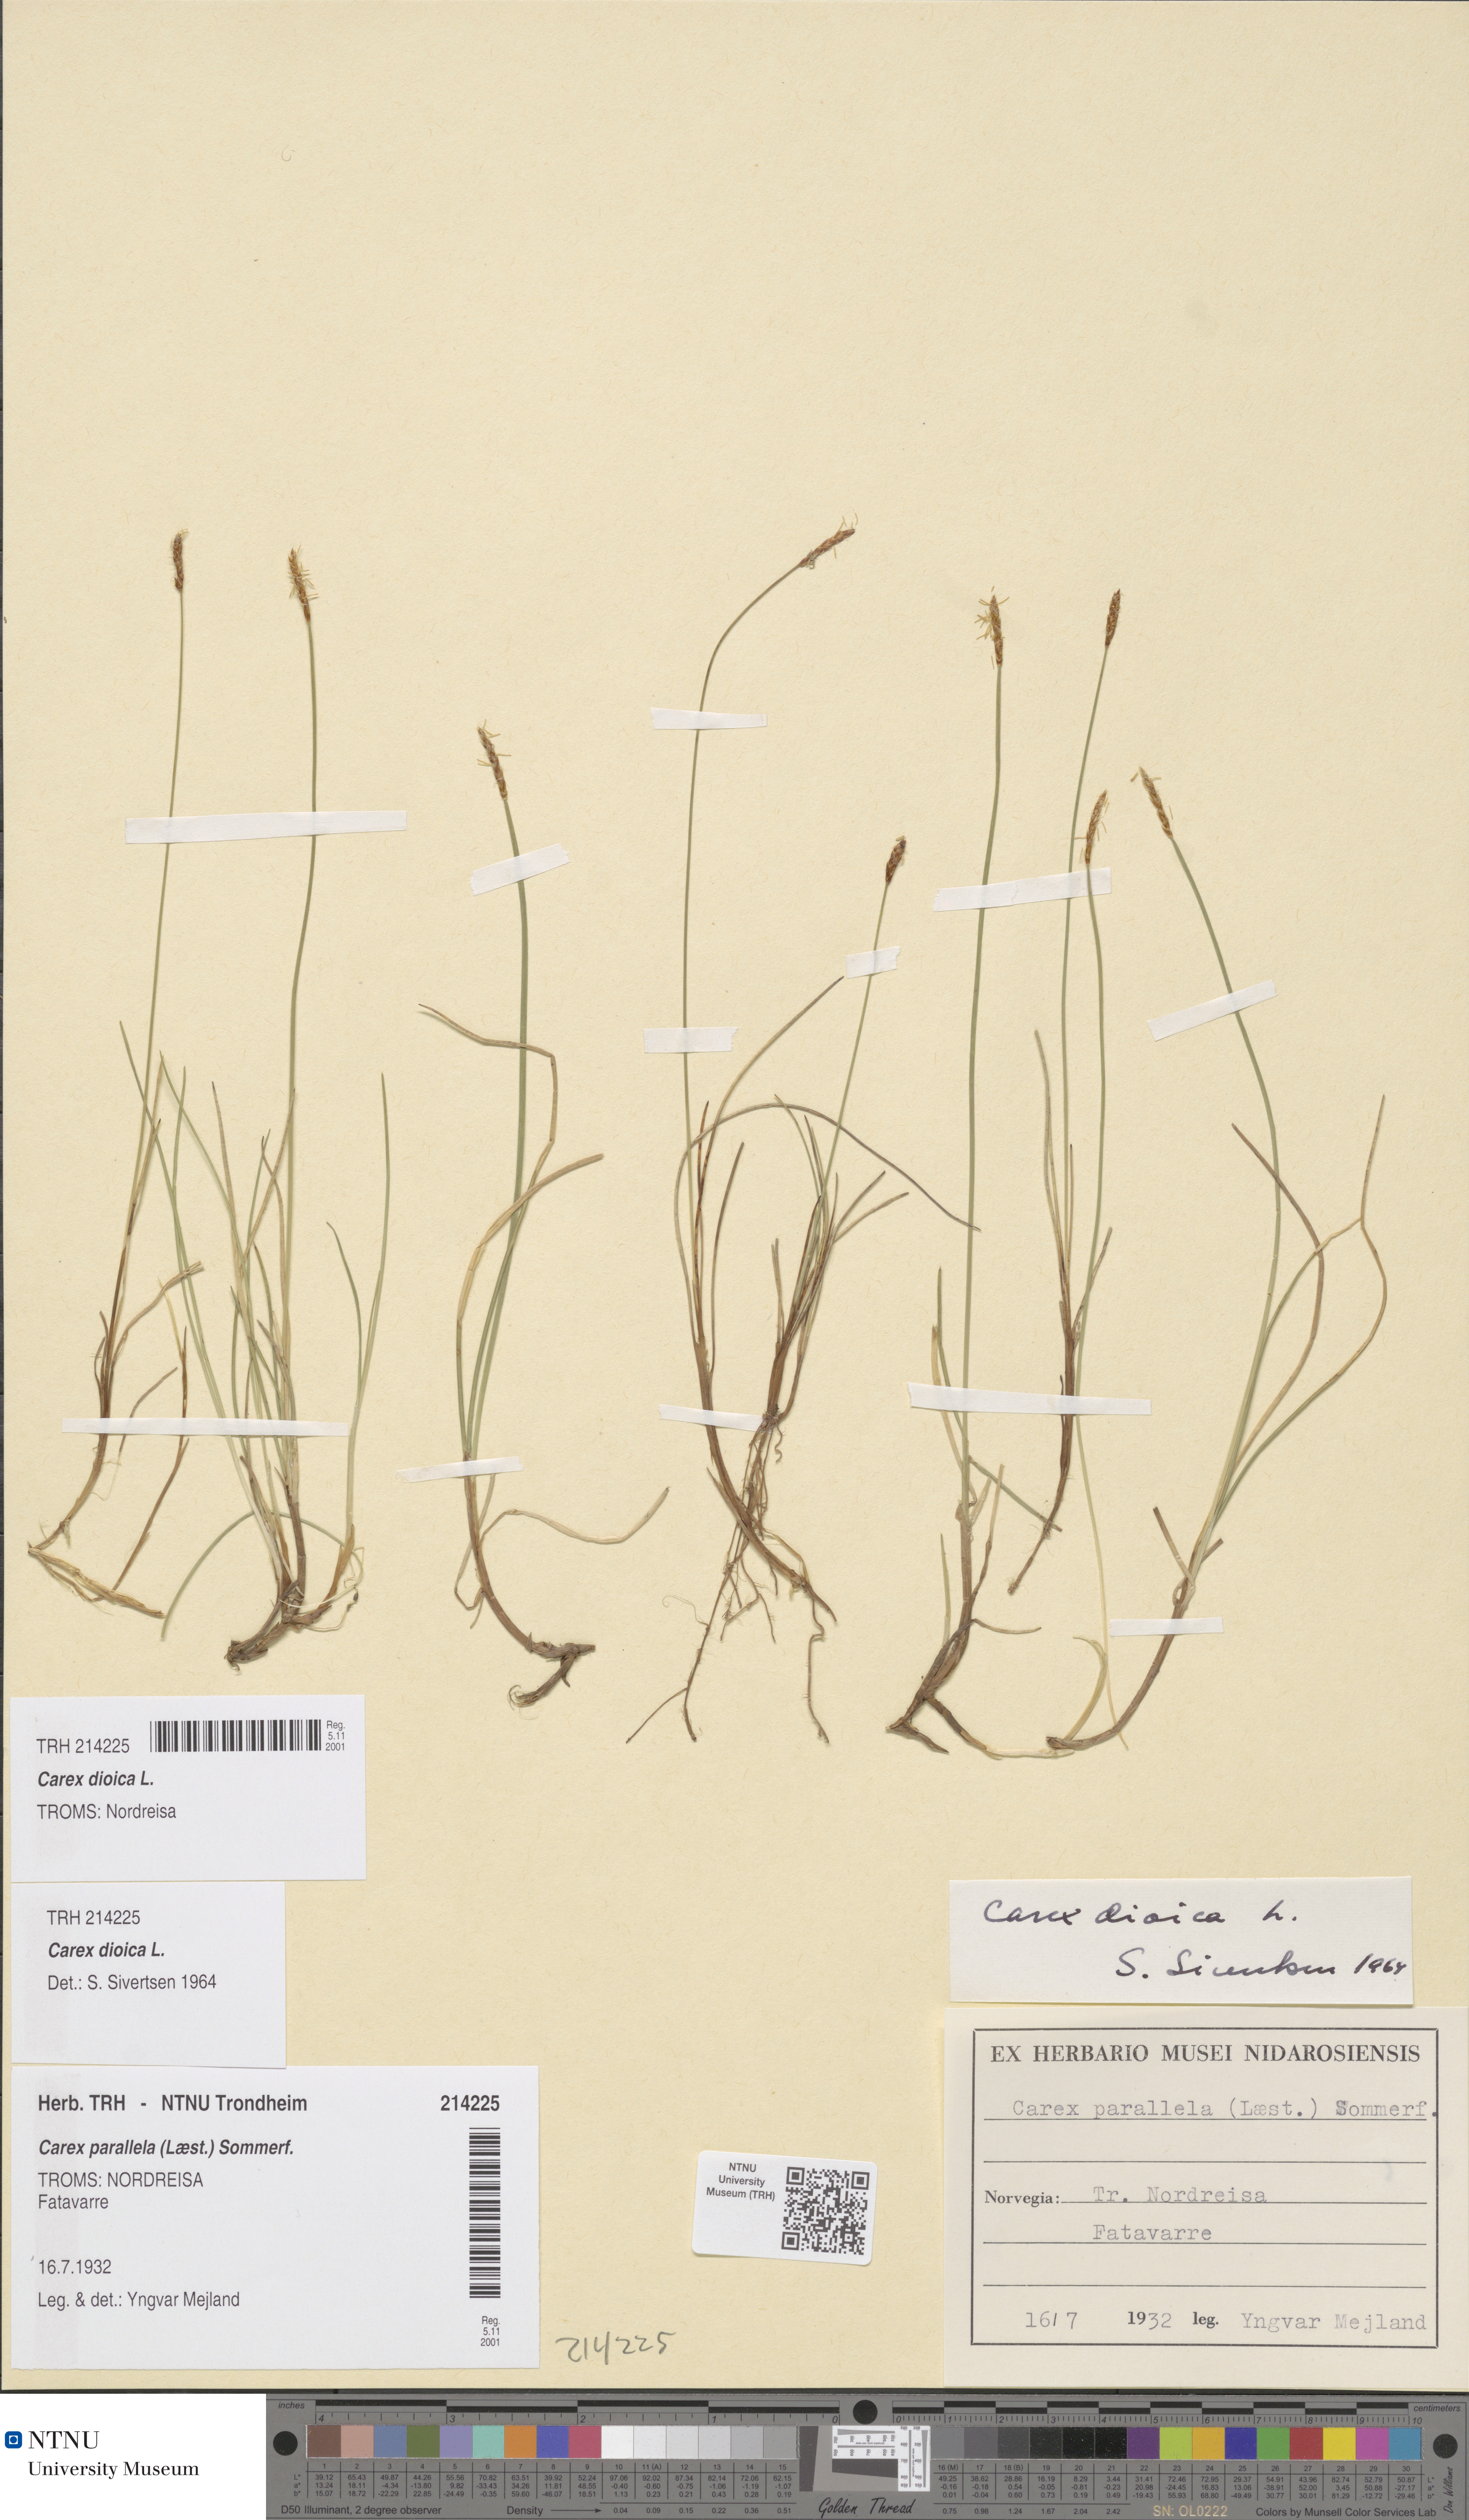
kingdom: Plantae
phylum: Tracheophyta
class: Liliopsida
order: Poales
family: Cyperaceae
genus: Carex
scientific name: Carex dioica
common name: Dioecious sedge
